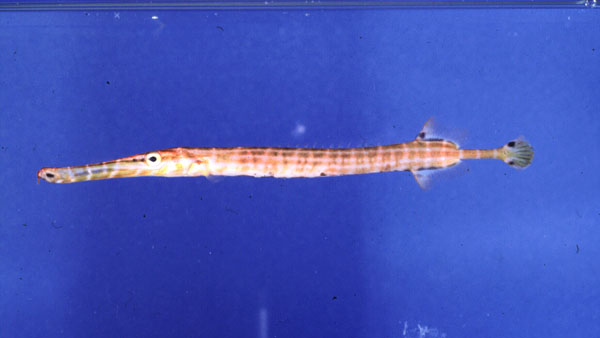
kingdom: Animalia
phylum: Chordata
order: Syngnathiformes
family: Aulostomidae
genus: Aulostomus
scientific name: Aulostomus chinensis
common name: Chinese trumpetfish
